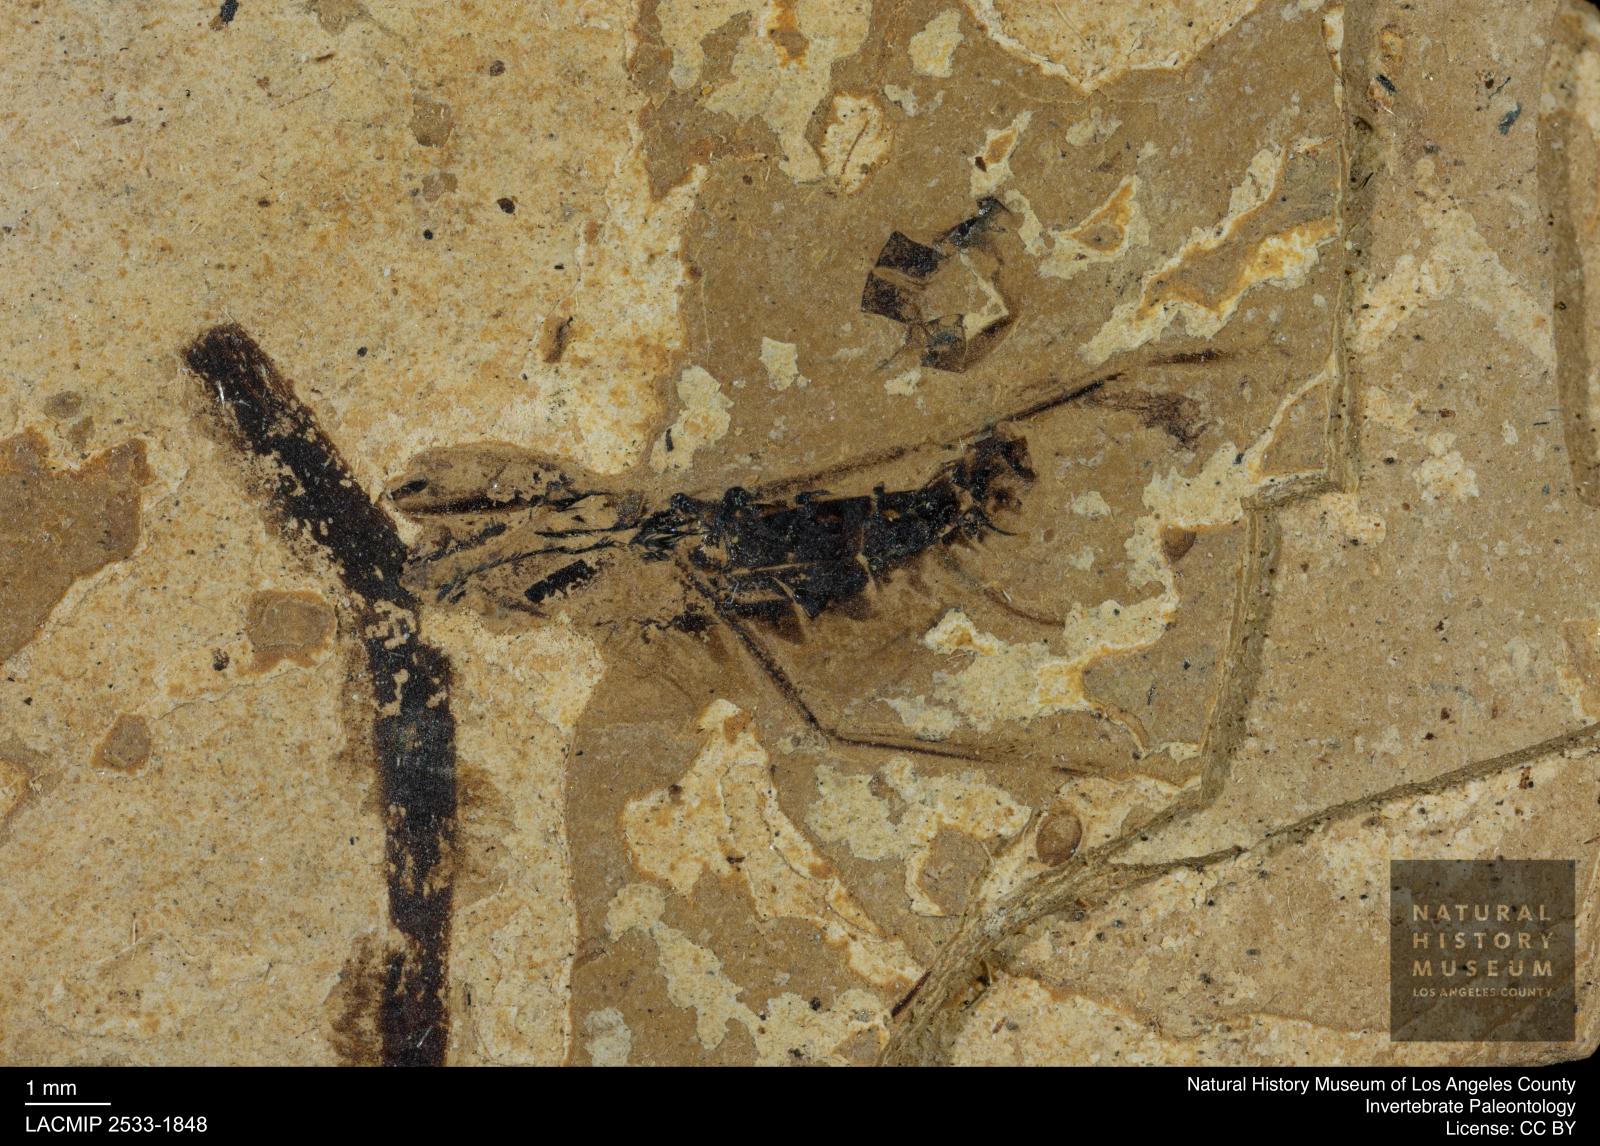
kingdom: Animalia
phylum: Arthropoda
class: Insecta
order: Hemiptera
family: Notonectidae
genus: Notonecta
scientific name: Notonecta
